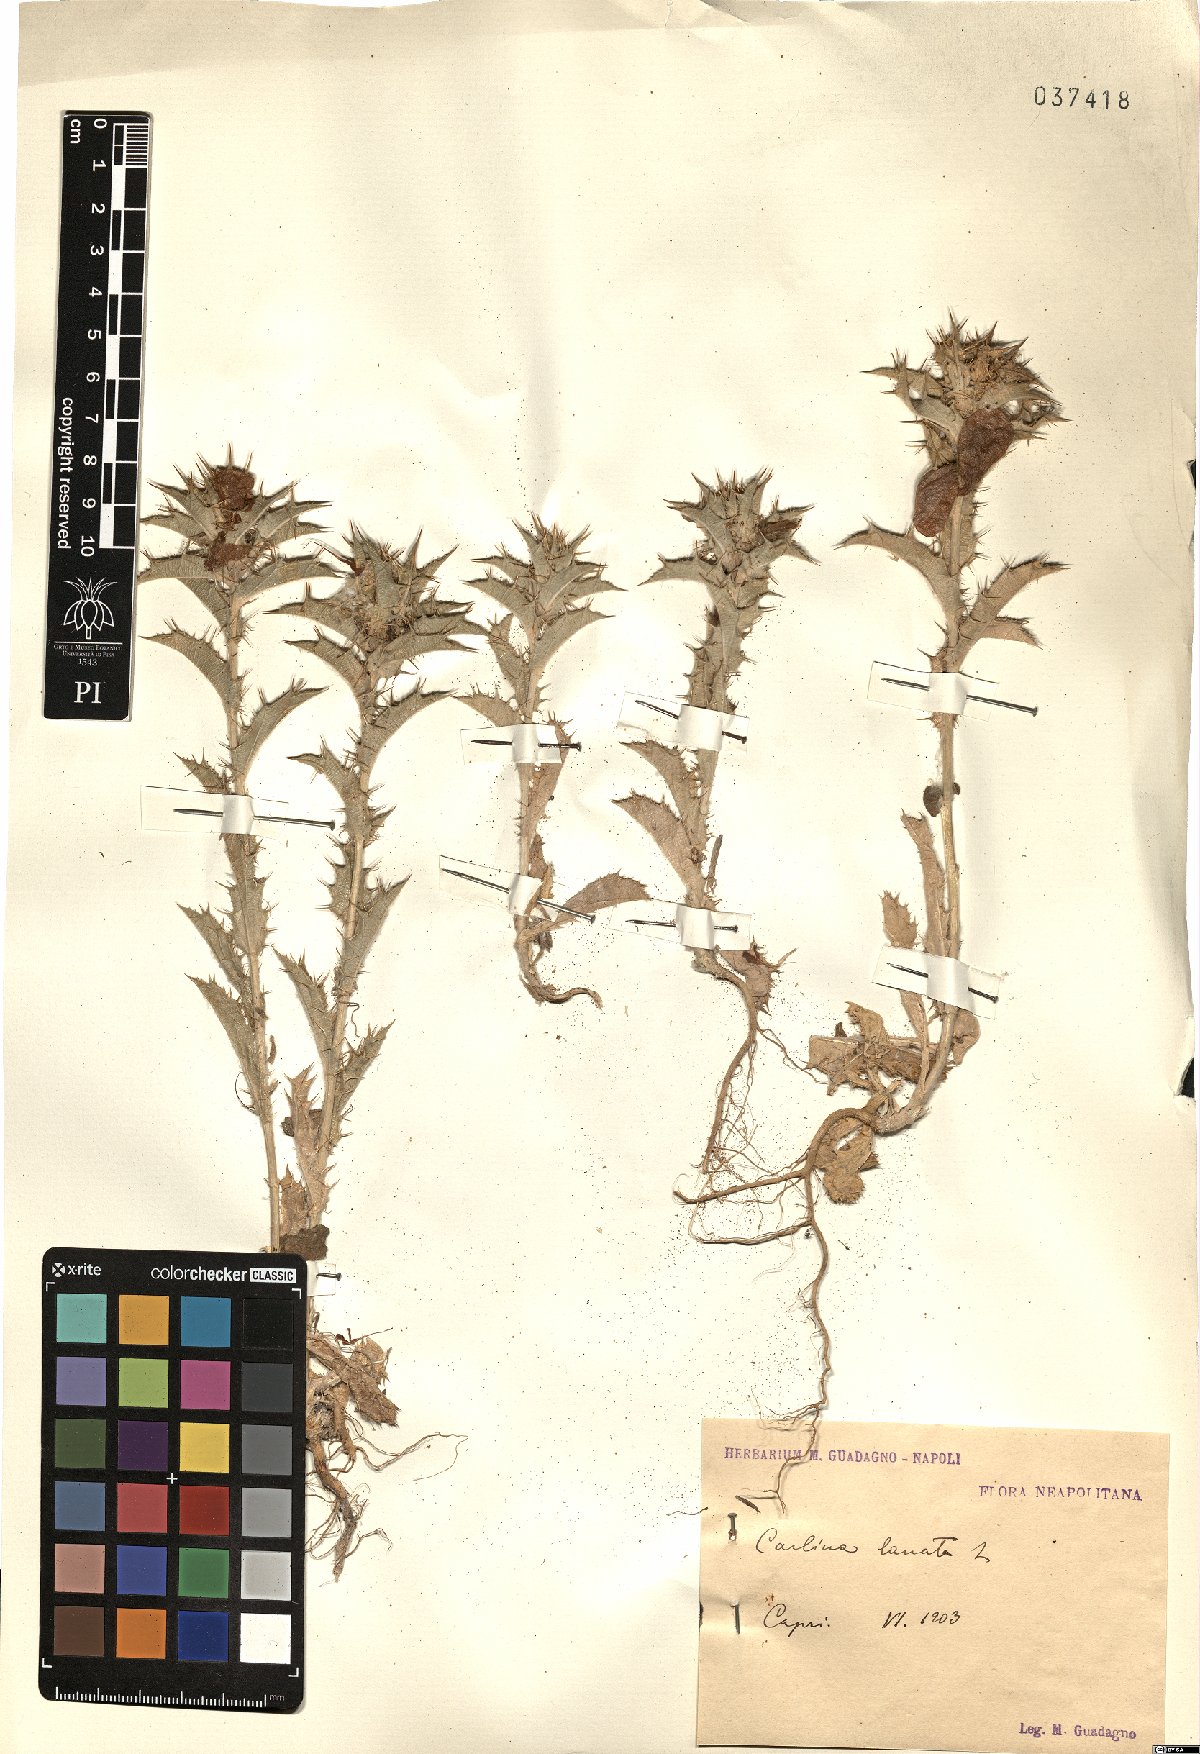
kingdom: Plantae
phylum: Tracheophyta
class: Magnoliopsida
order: Asterales
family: Asteraceae
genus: Carlina
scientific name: Carlina lanata
